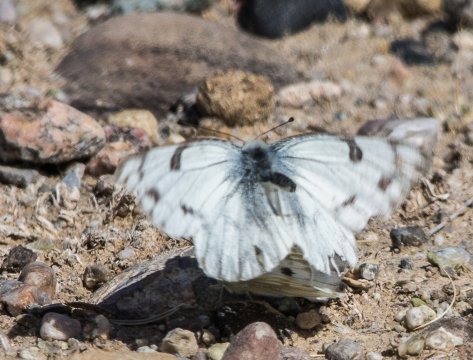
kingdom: Animalia
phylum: Arthropoda
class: Insecta
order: Lepidoptera
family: Pieridae
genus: Pontia
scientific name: Pontia occidentalis
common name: Western White
